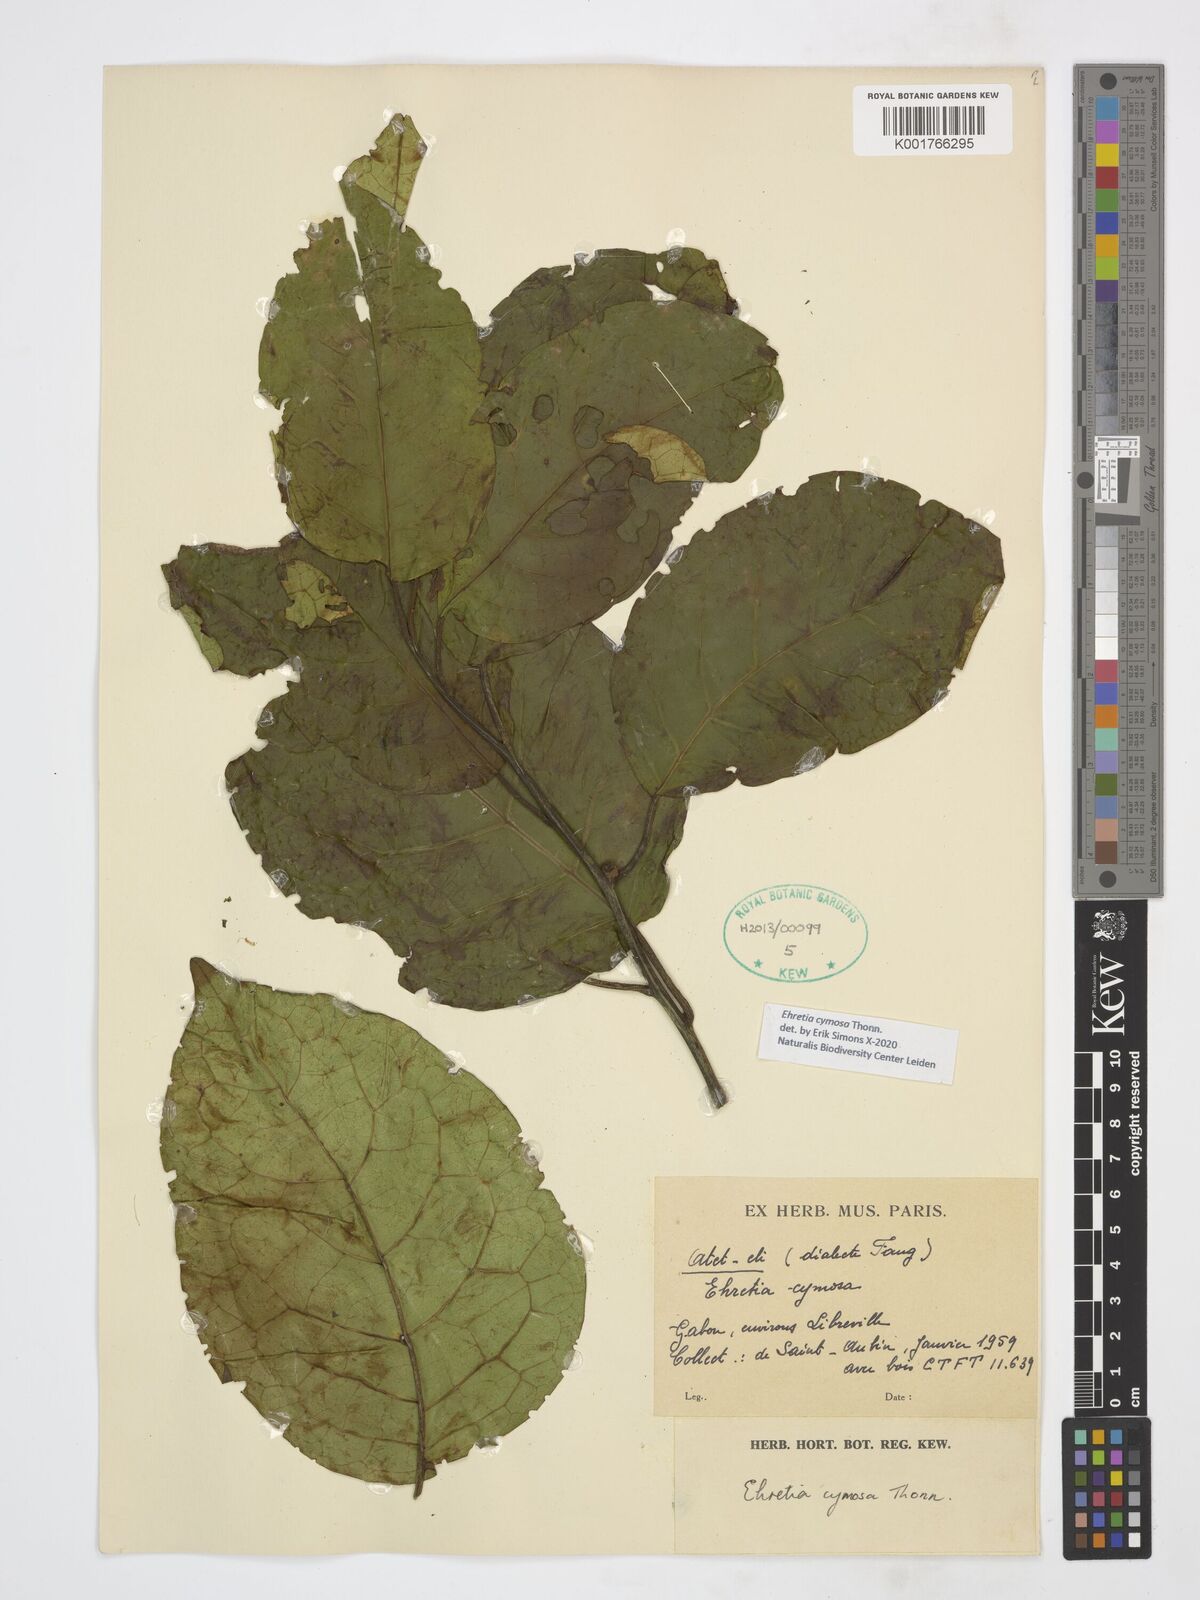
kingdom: Plantae
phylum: Tracheophyta
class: Magnoliopsida
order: Boraginales
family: Ehretiaceae
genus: Ehretia
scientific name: Ehretia cymosa
